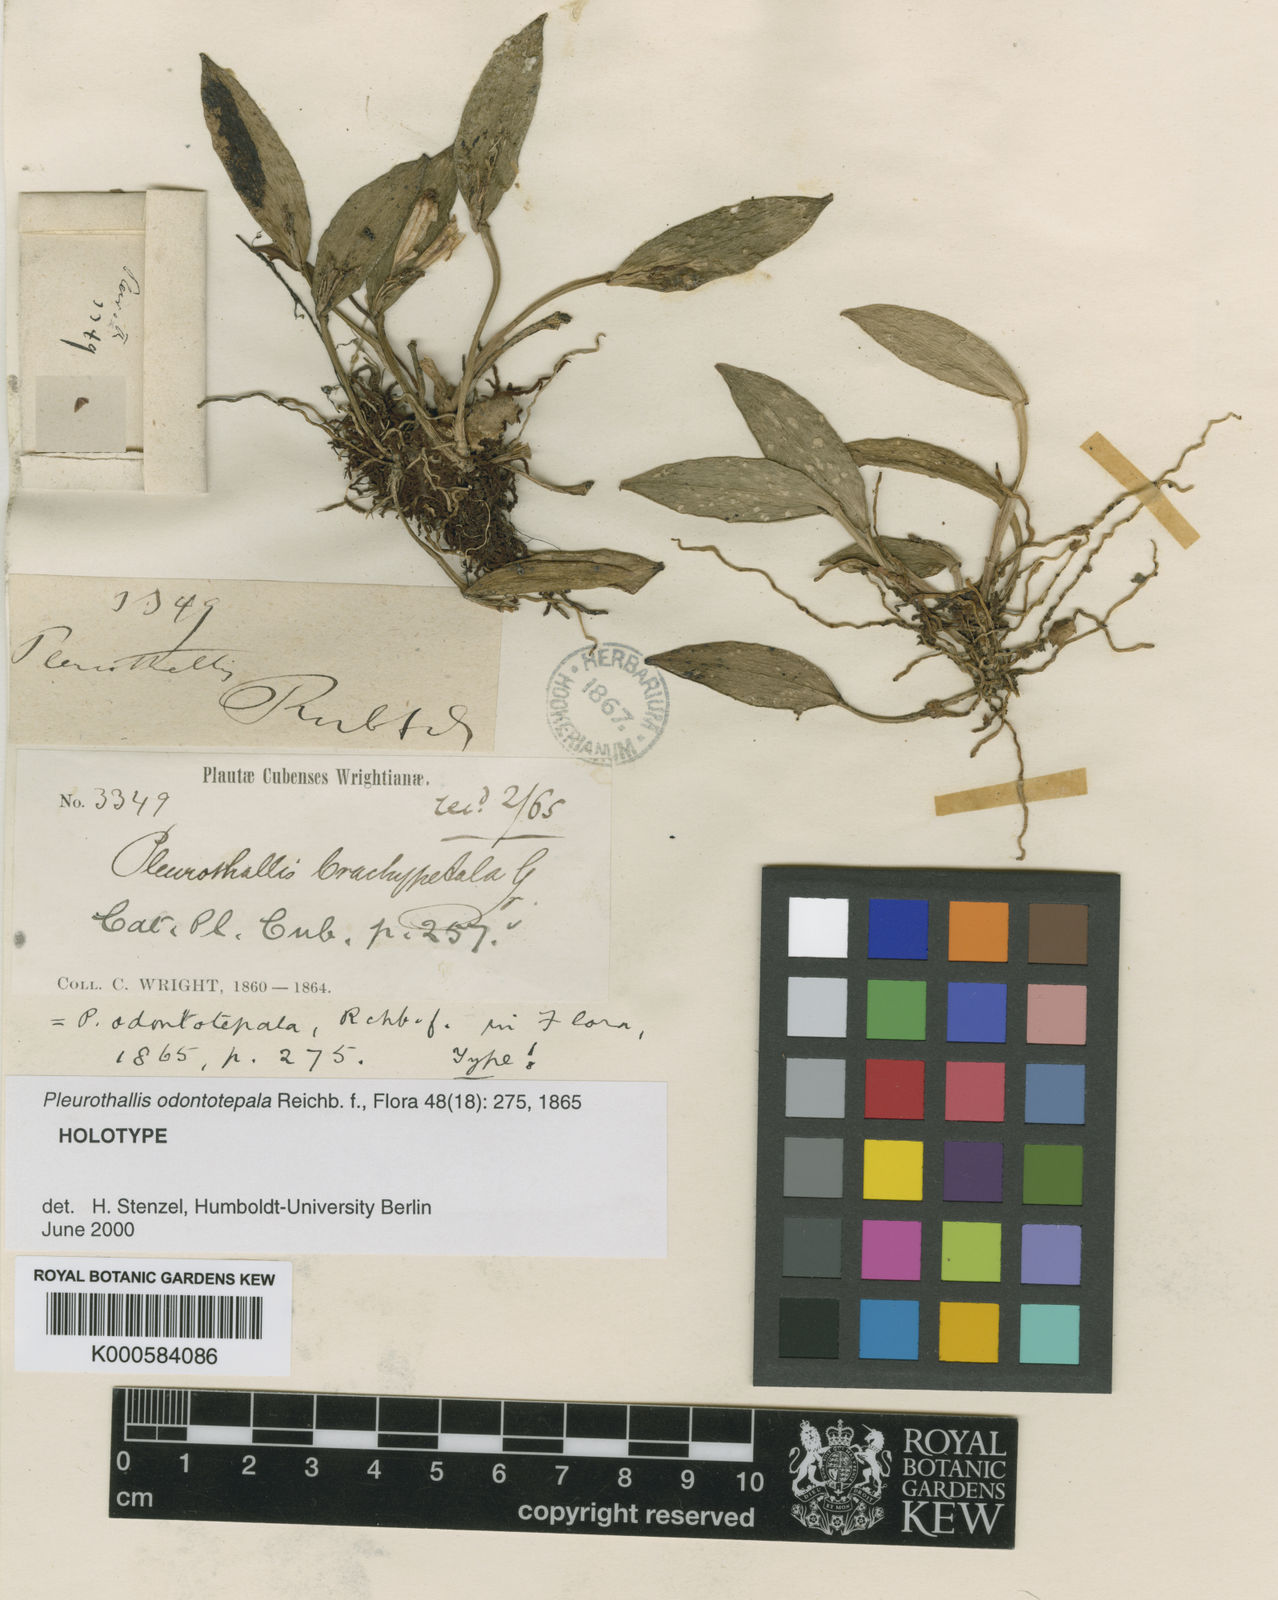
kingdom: Plantae
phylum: Tracheophyta
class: Liliopsida
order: Asparagales
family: Orchidaceae
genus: Acianthera
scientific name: Acianthera odontotepala
